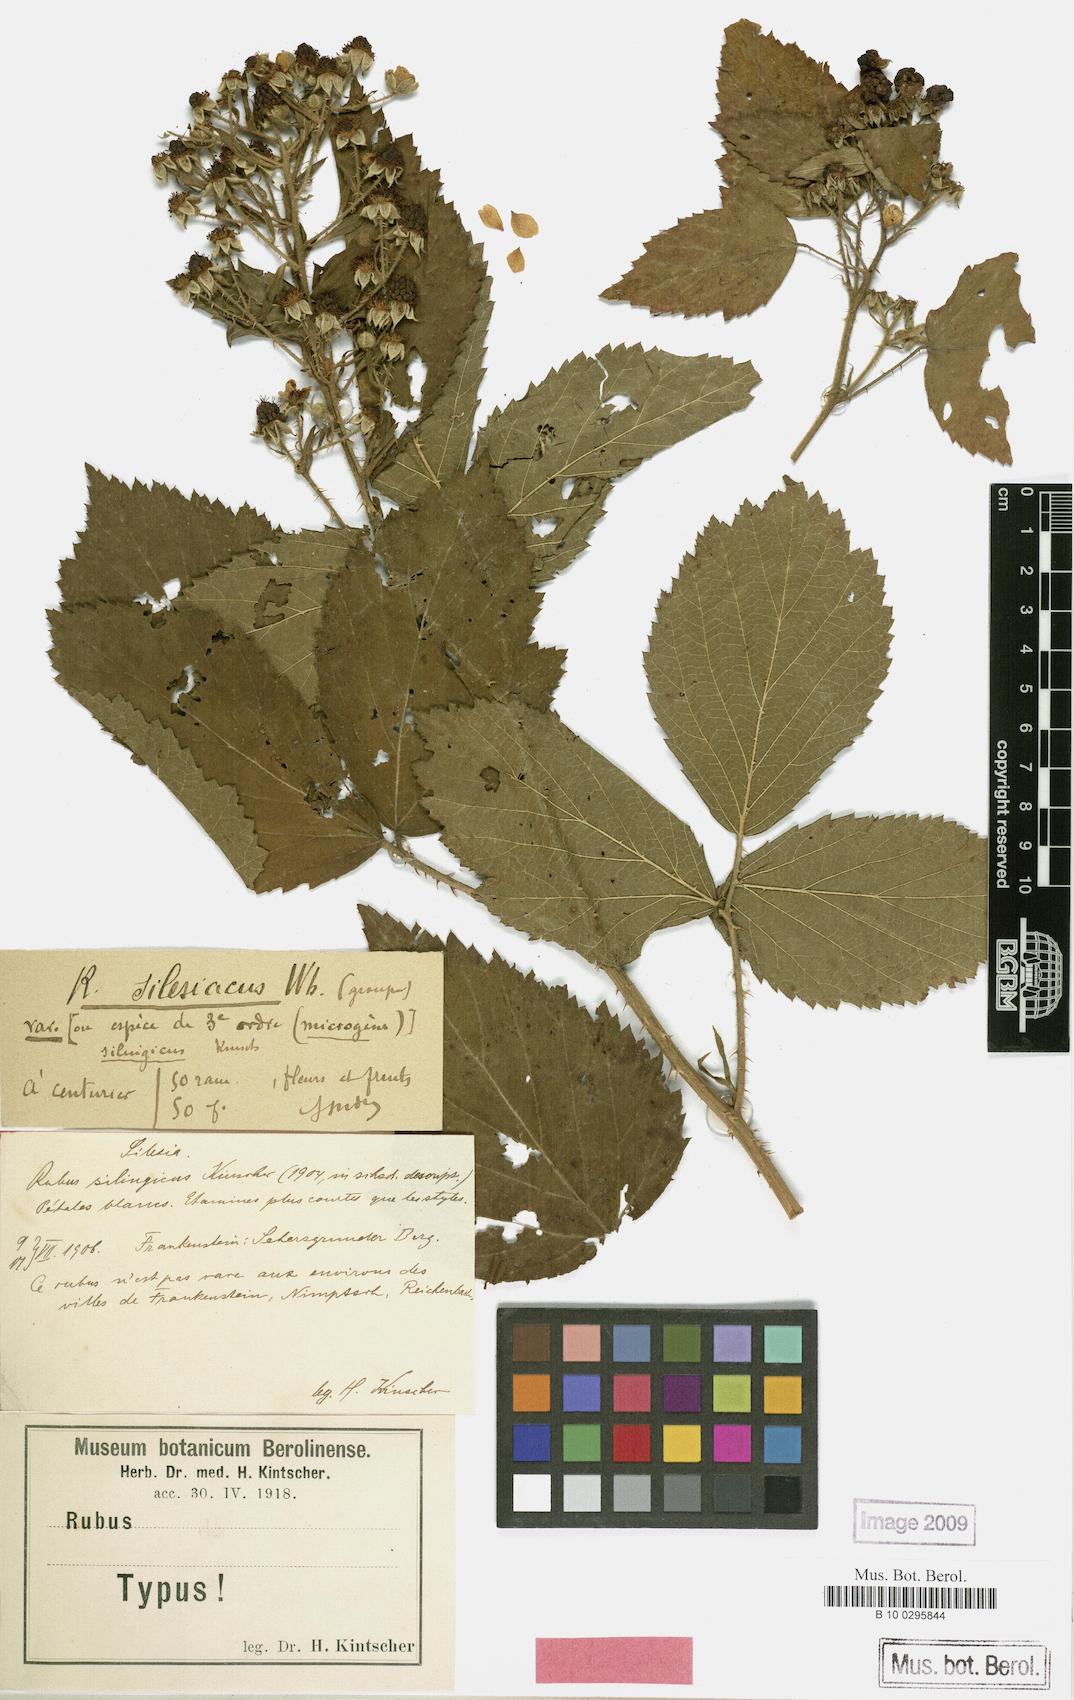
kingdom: Plantae
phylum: Tracheophyta
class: Magnoliopsida
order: Rosales
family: Rosaceae
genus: Rubus
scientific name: Rubus chlorothyrsos
